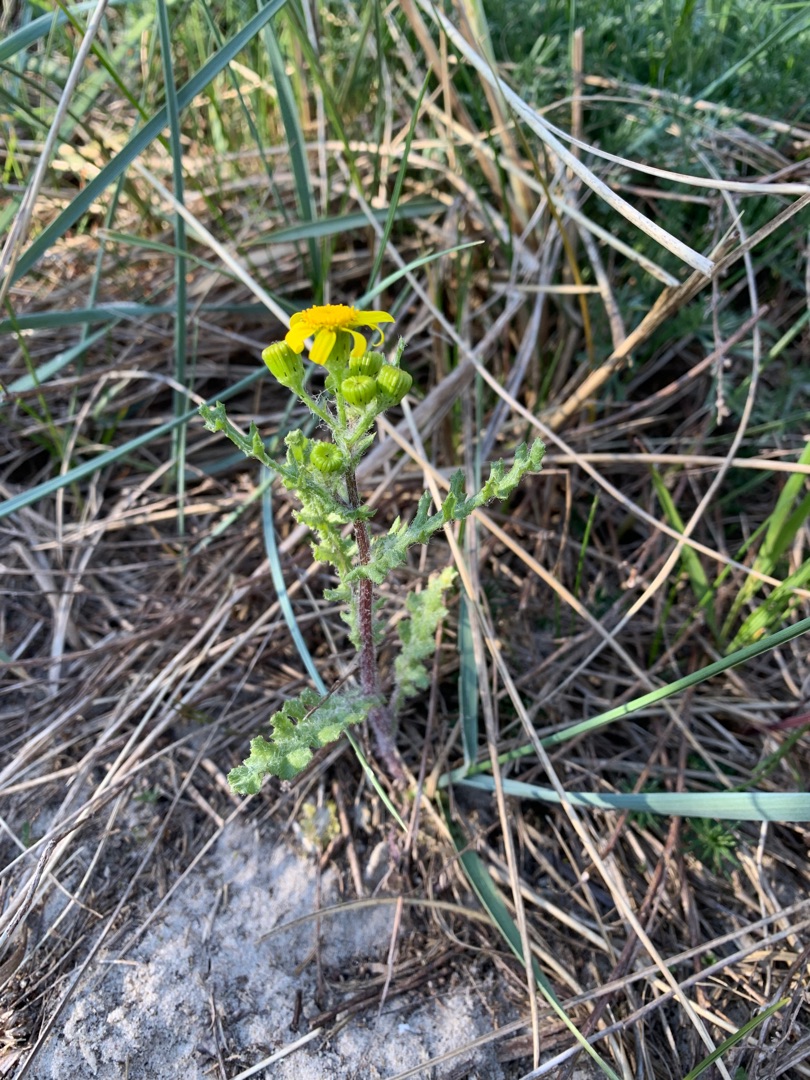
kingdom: Plantae
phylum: Tracheophyta
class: Magnoliopsida
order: Asterales
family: Asteraceae
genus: Senecio
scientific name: Senecio leucanthemifolius
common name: Vår-brandbæger
